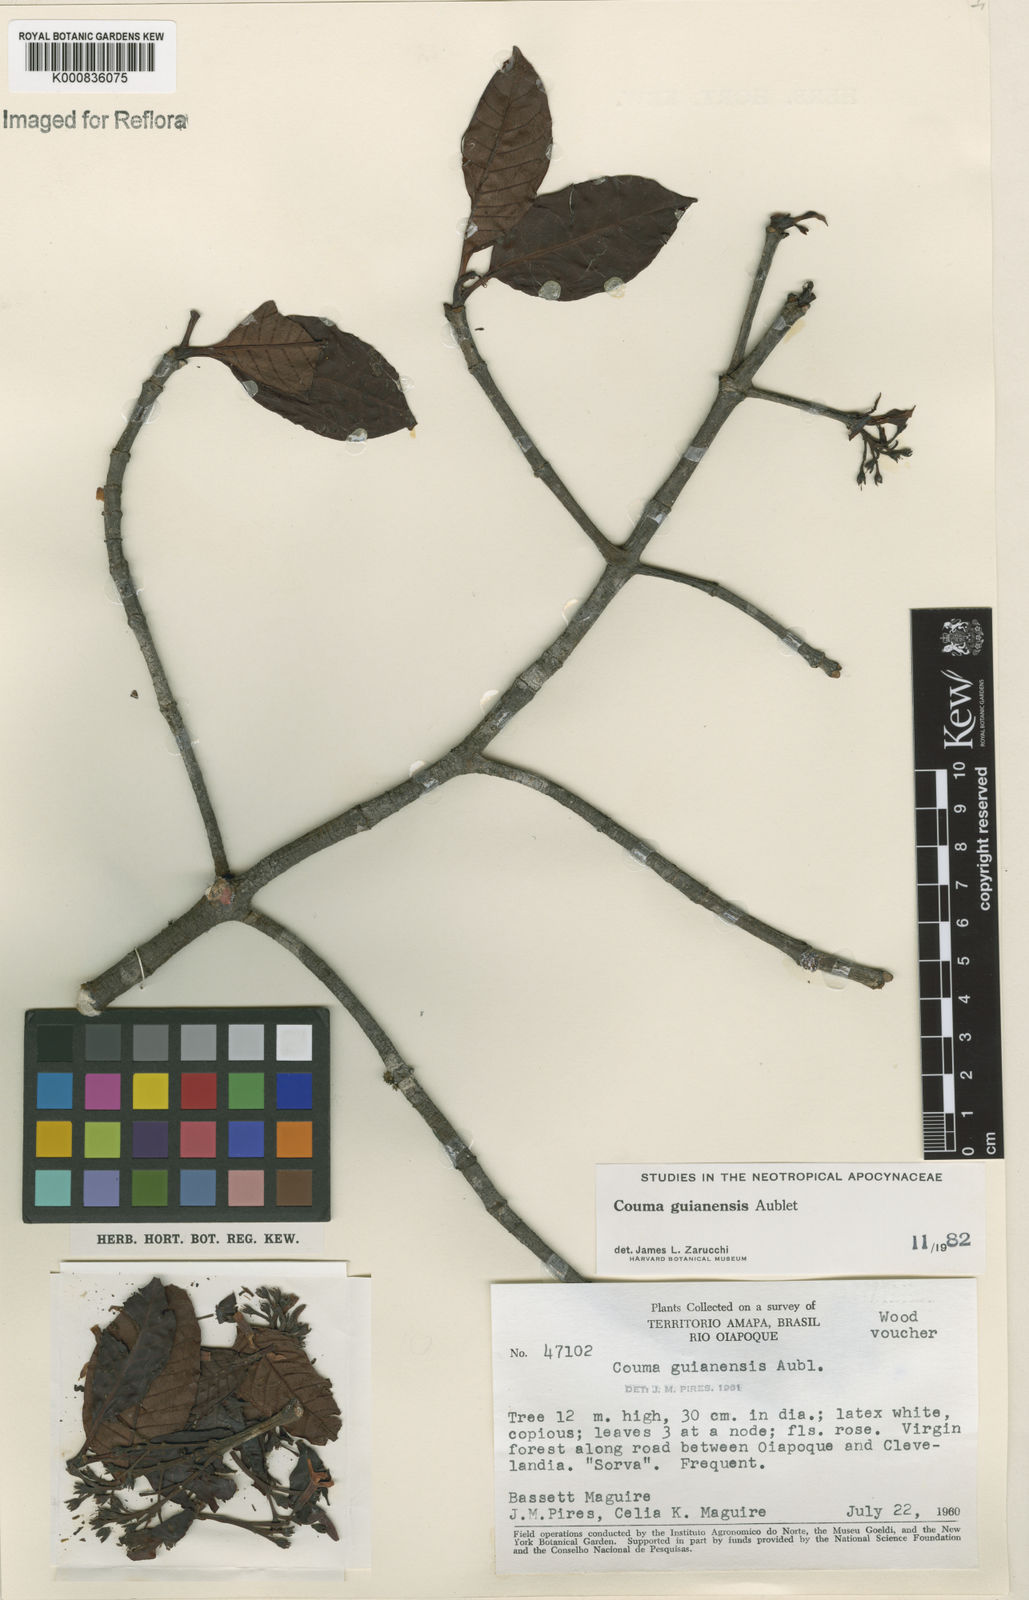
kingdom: Plantae
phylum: Tracheophyta
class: Magnoliopsida
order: Gentianales
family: Apocynaceae
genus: Couma
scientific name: Couma guianensis
